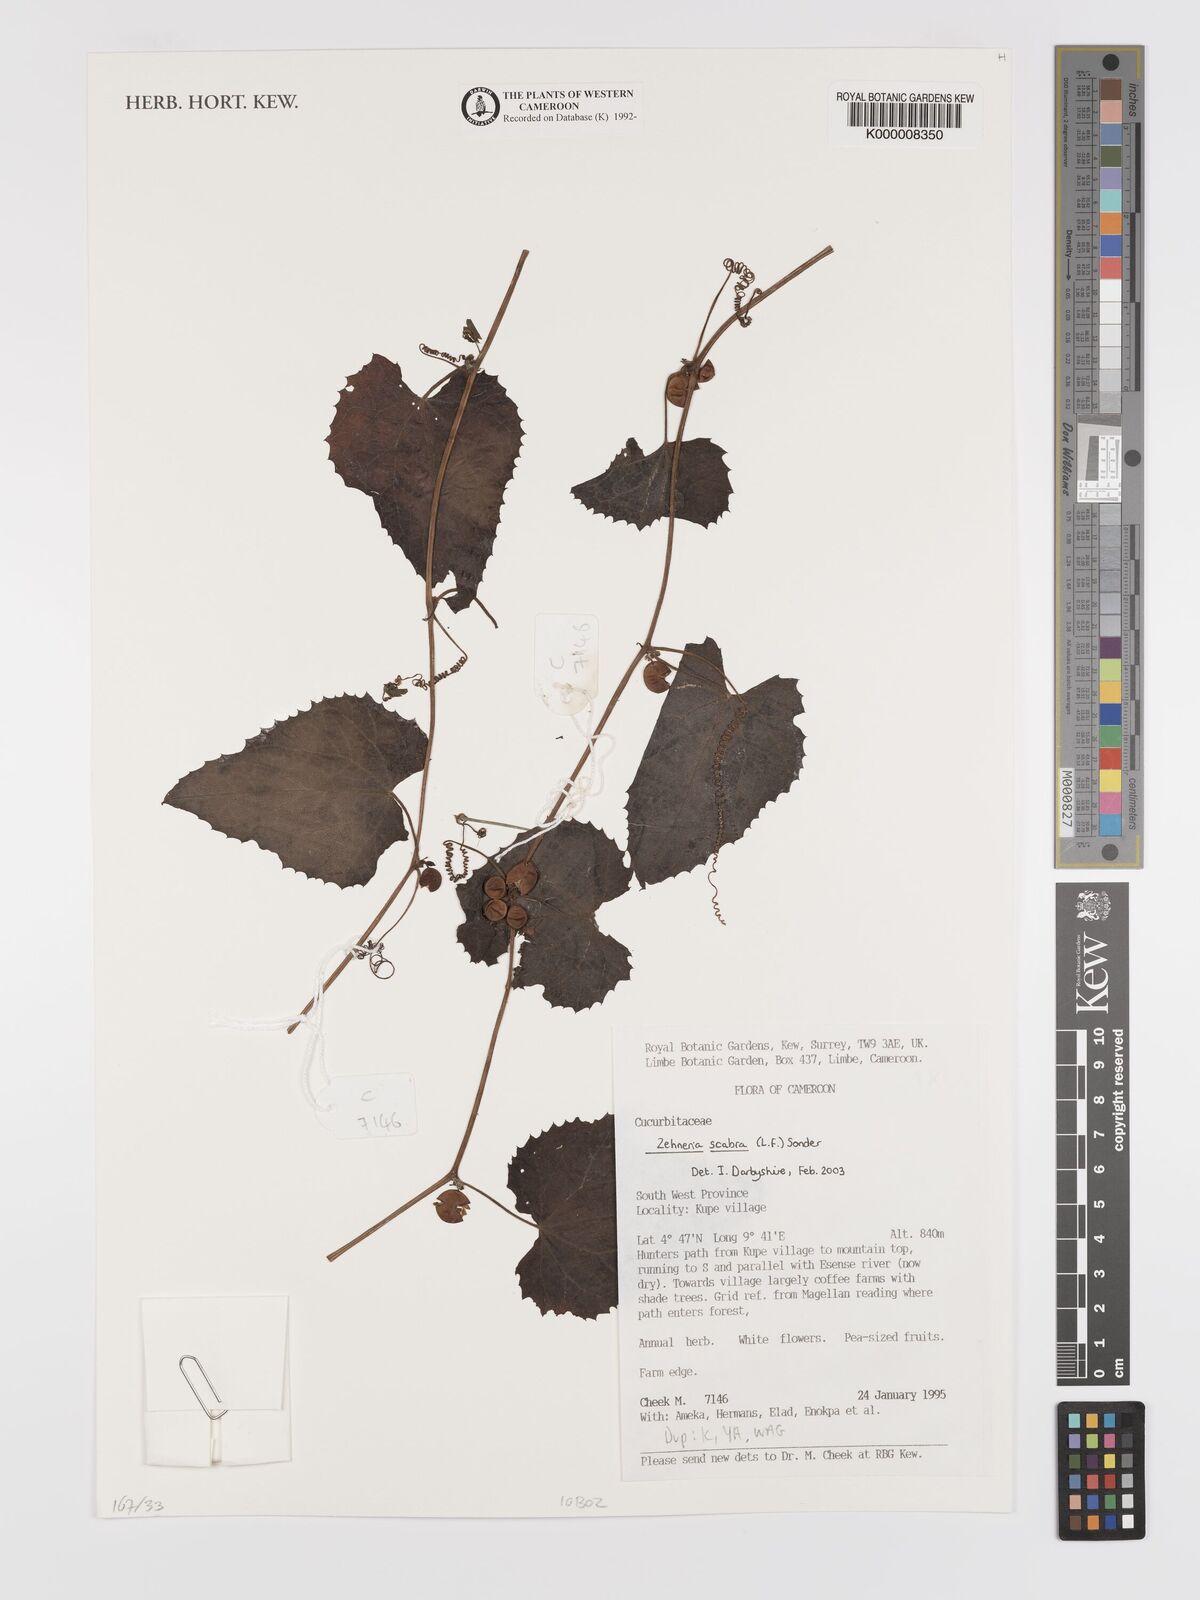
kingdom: Plantae
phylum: Tracheophyta
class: Magnoliopsida
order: Cucurbitales
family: Cucurbitaceae
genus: Zehneria
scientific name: Zehneria scabra
